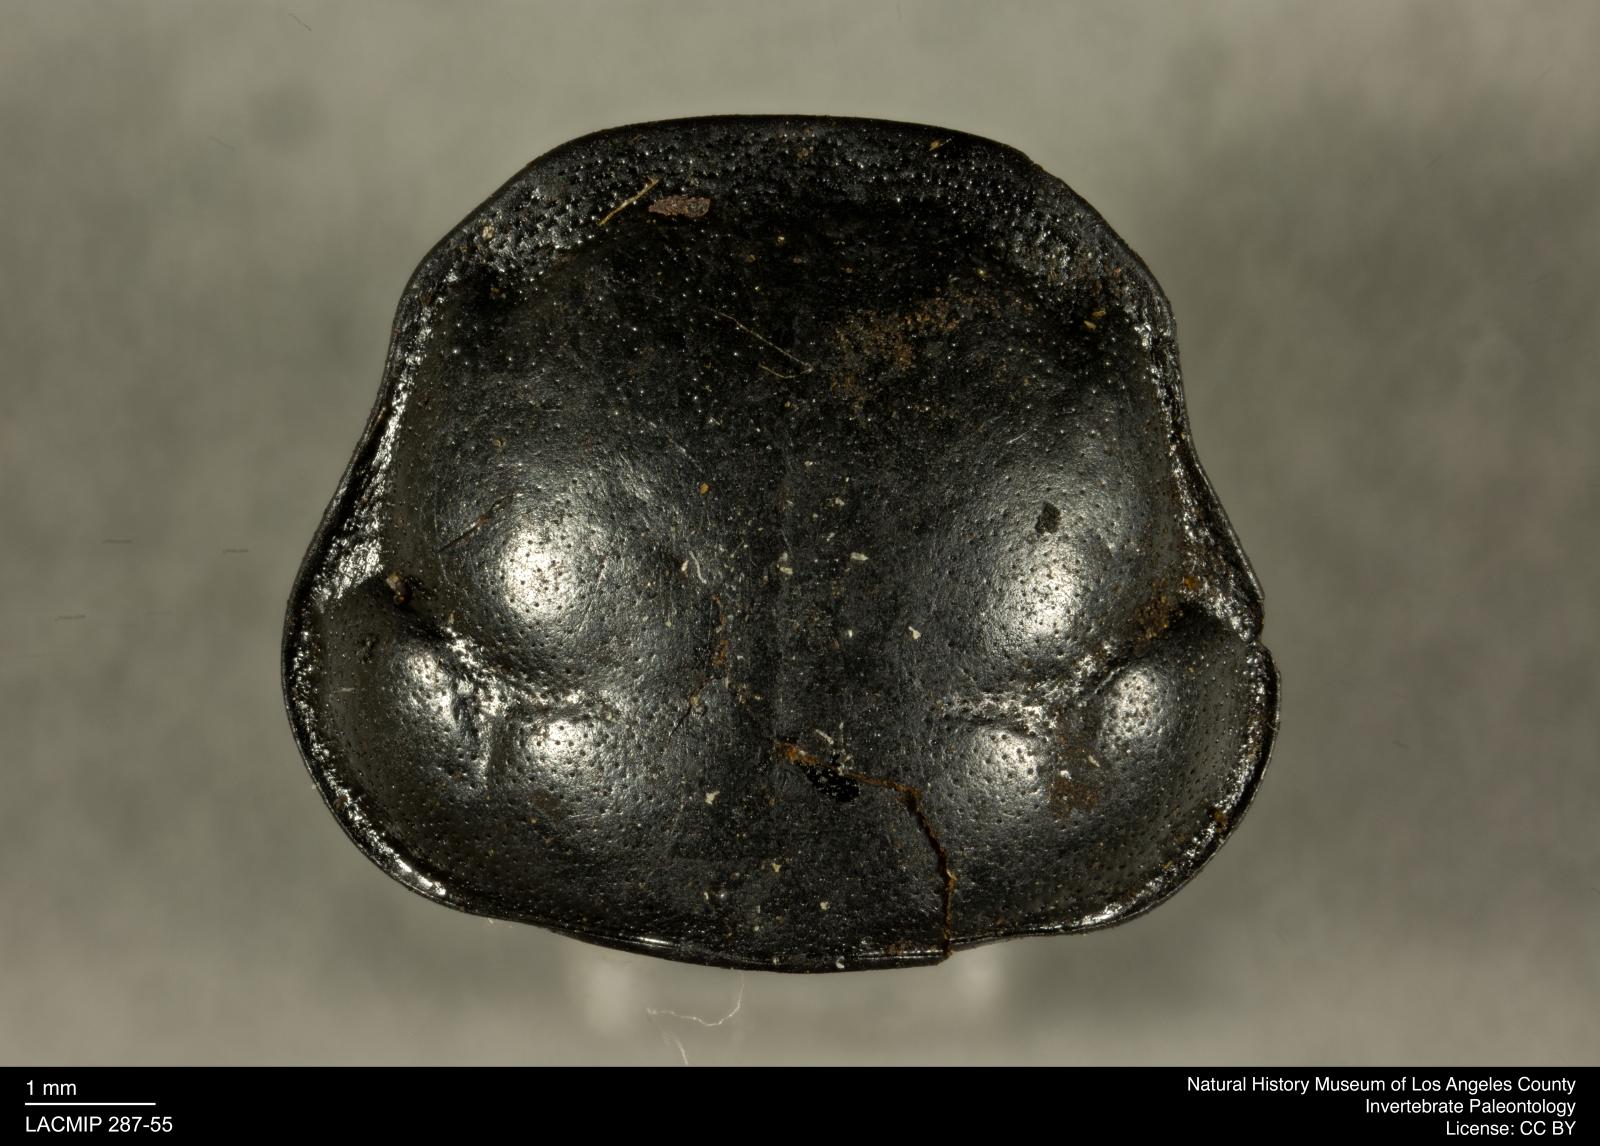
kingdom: Animalia
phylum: Arthropoda
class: Insecta
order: Coleoptera
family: Staphylinidae
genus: Nicrophorus
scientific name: Nicrophorus marginatus
